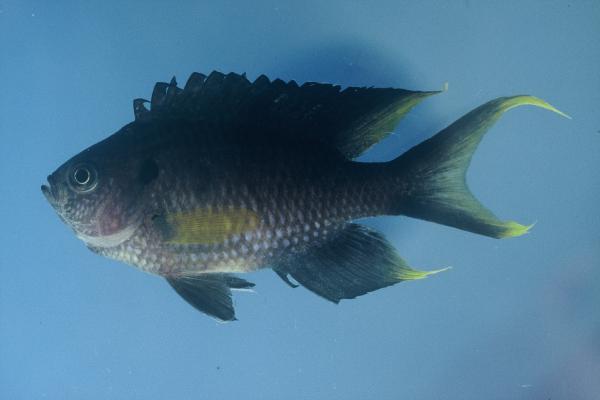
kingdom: Animalia
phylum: Chordata
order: Perciformes
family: Pomacentridae
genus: Neopomacentrus
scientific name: Neopomacentrus cyanomos
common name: Regal demoiselle
